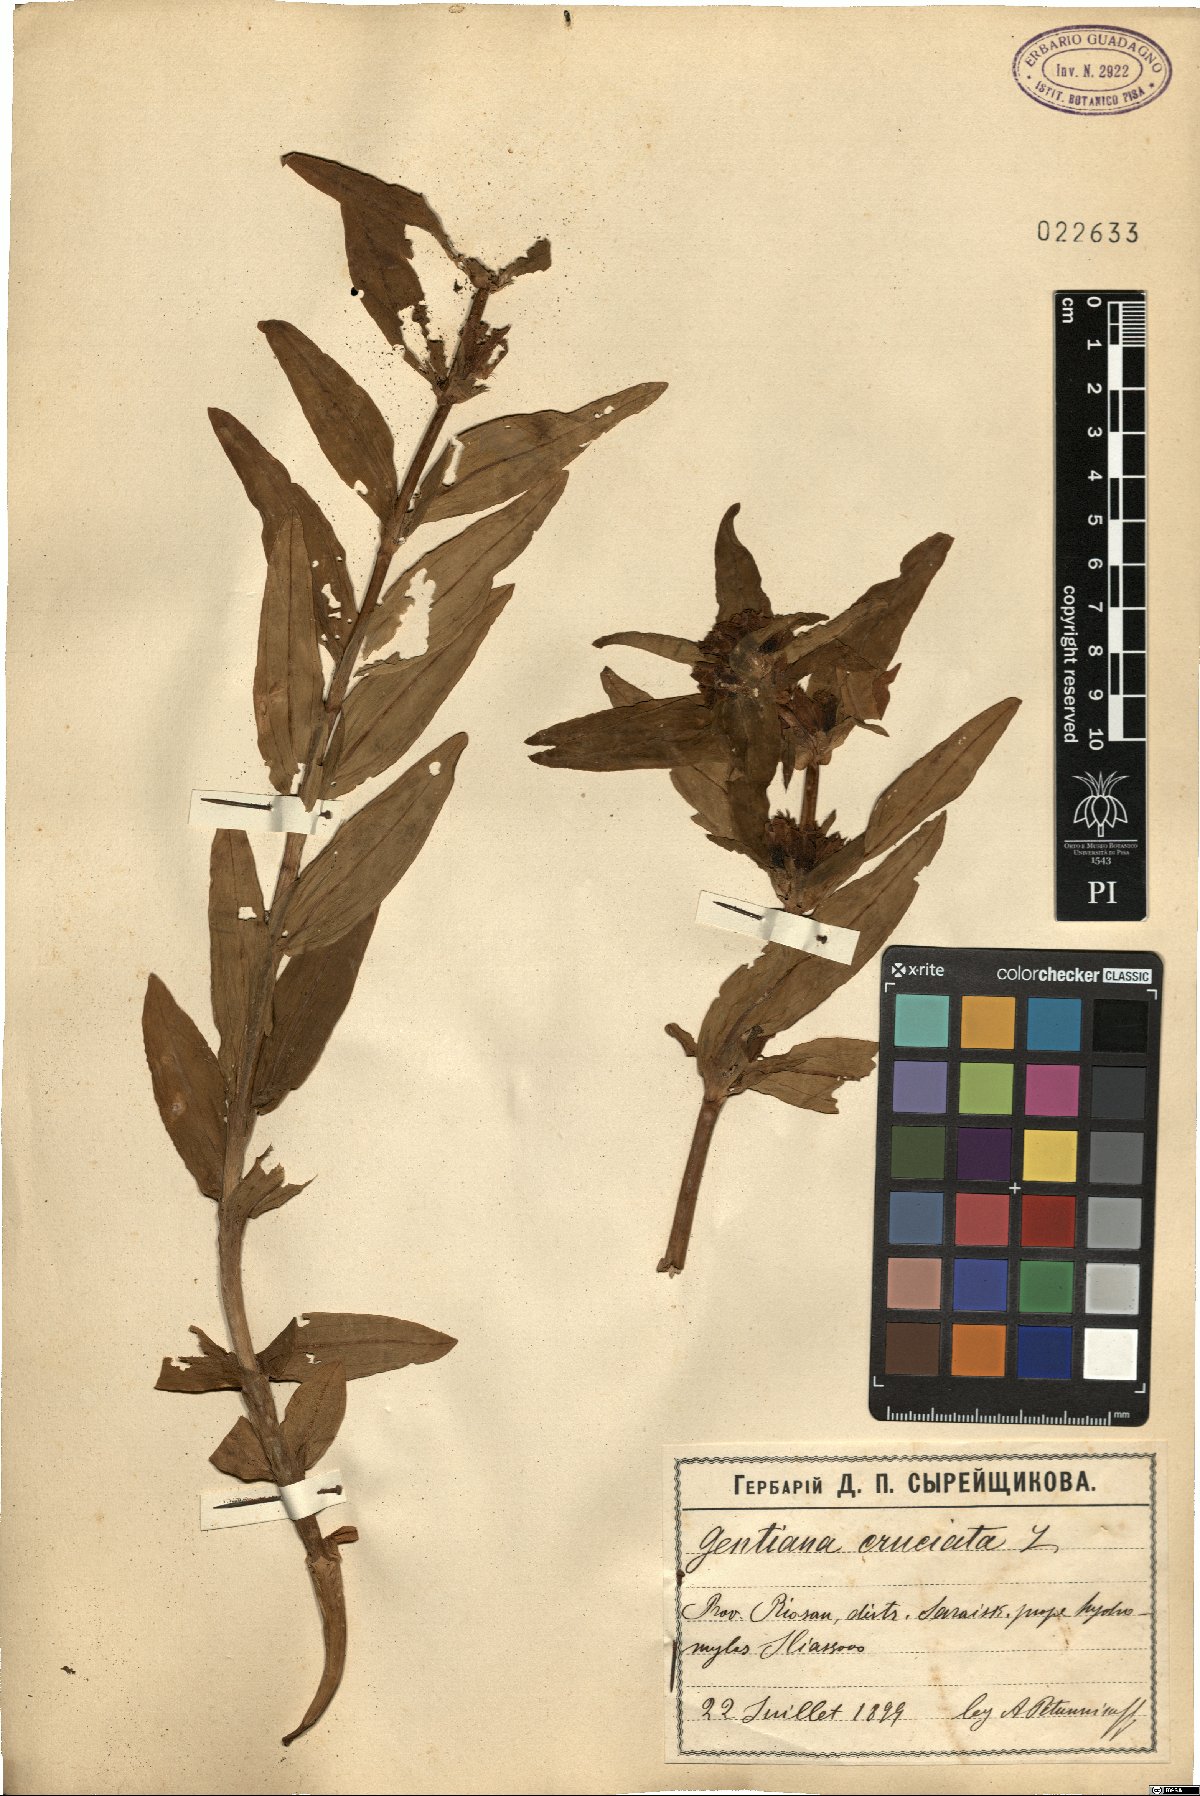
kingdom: Plantae
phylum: Tracheophyta
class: Magnoliopsida
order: Gentianales
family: Gentianaceae
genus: Gentiana
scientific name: Gentiana cruciata
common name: Cross gentian
